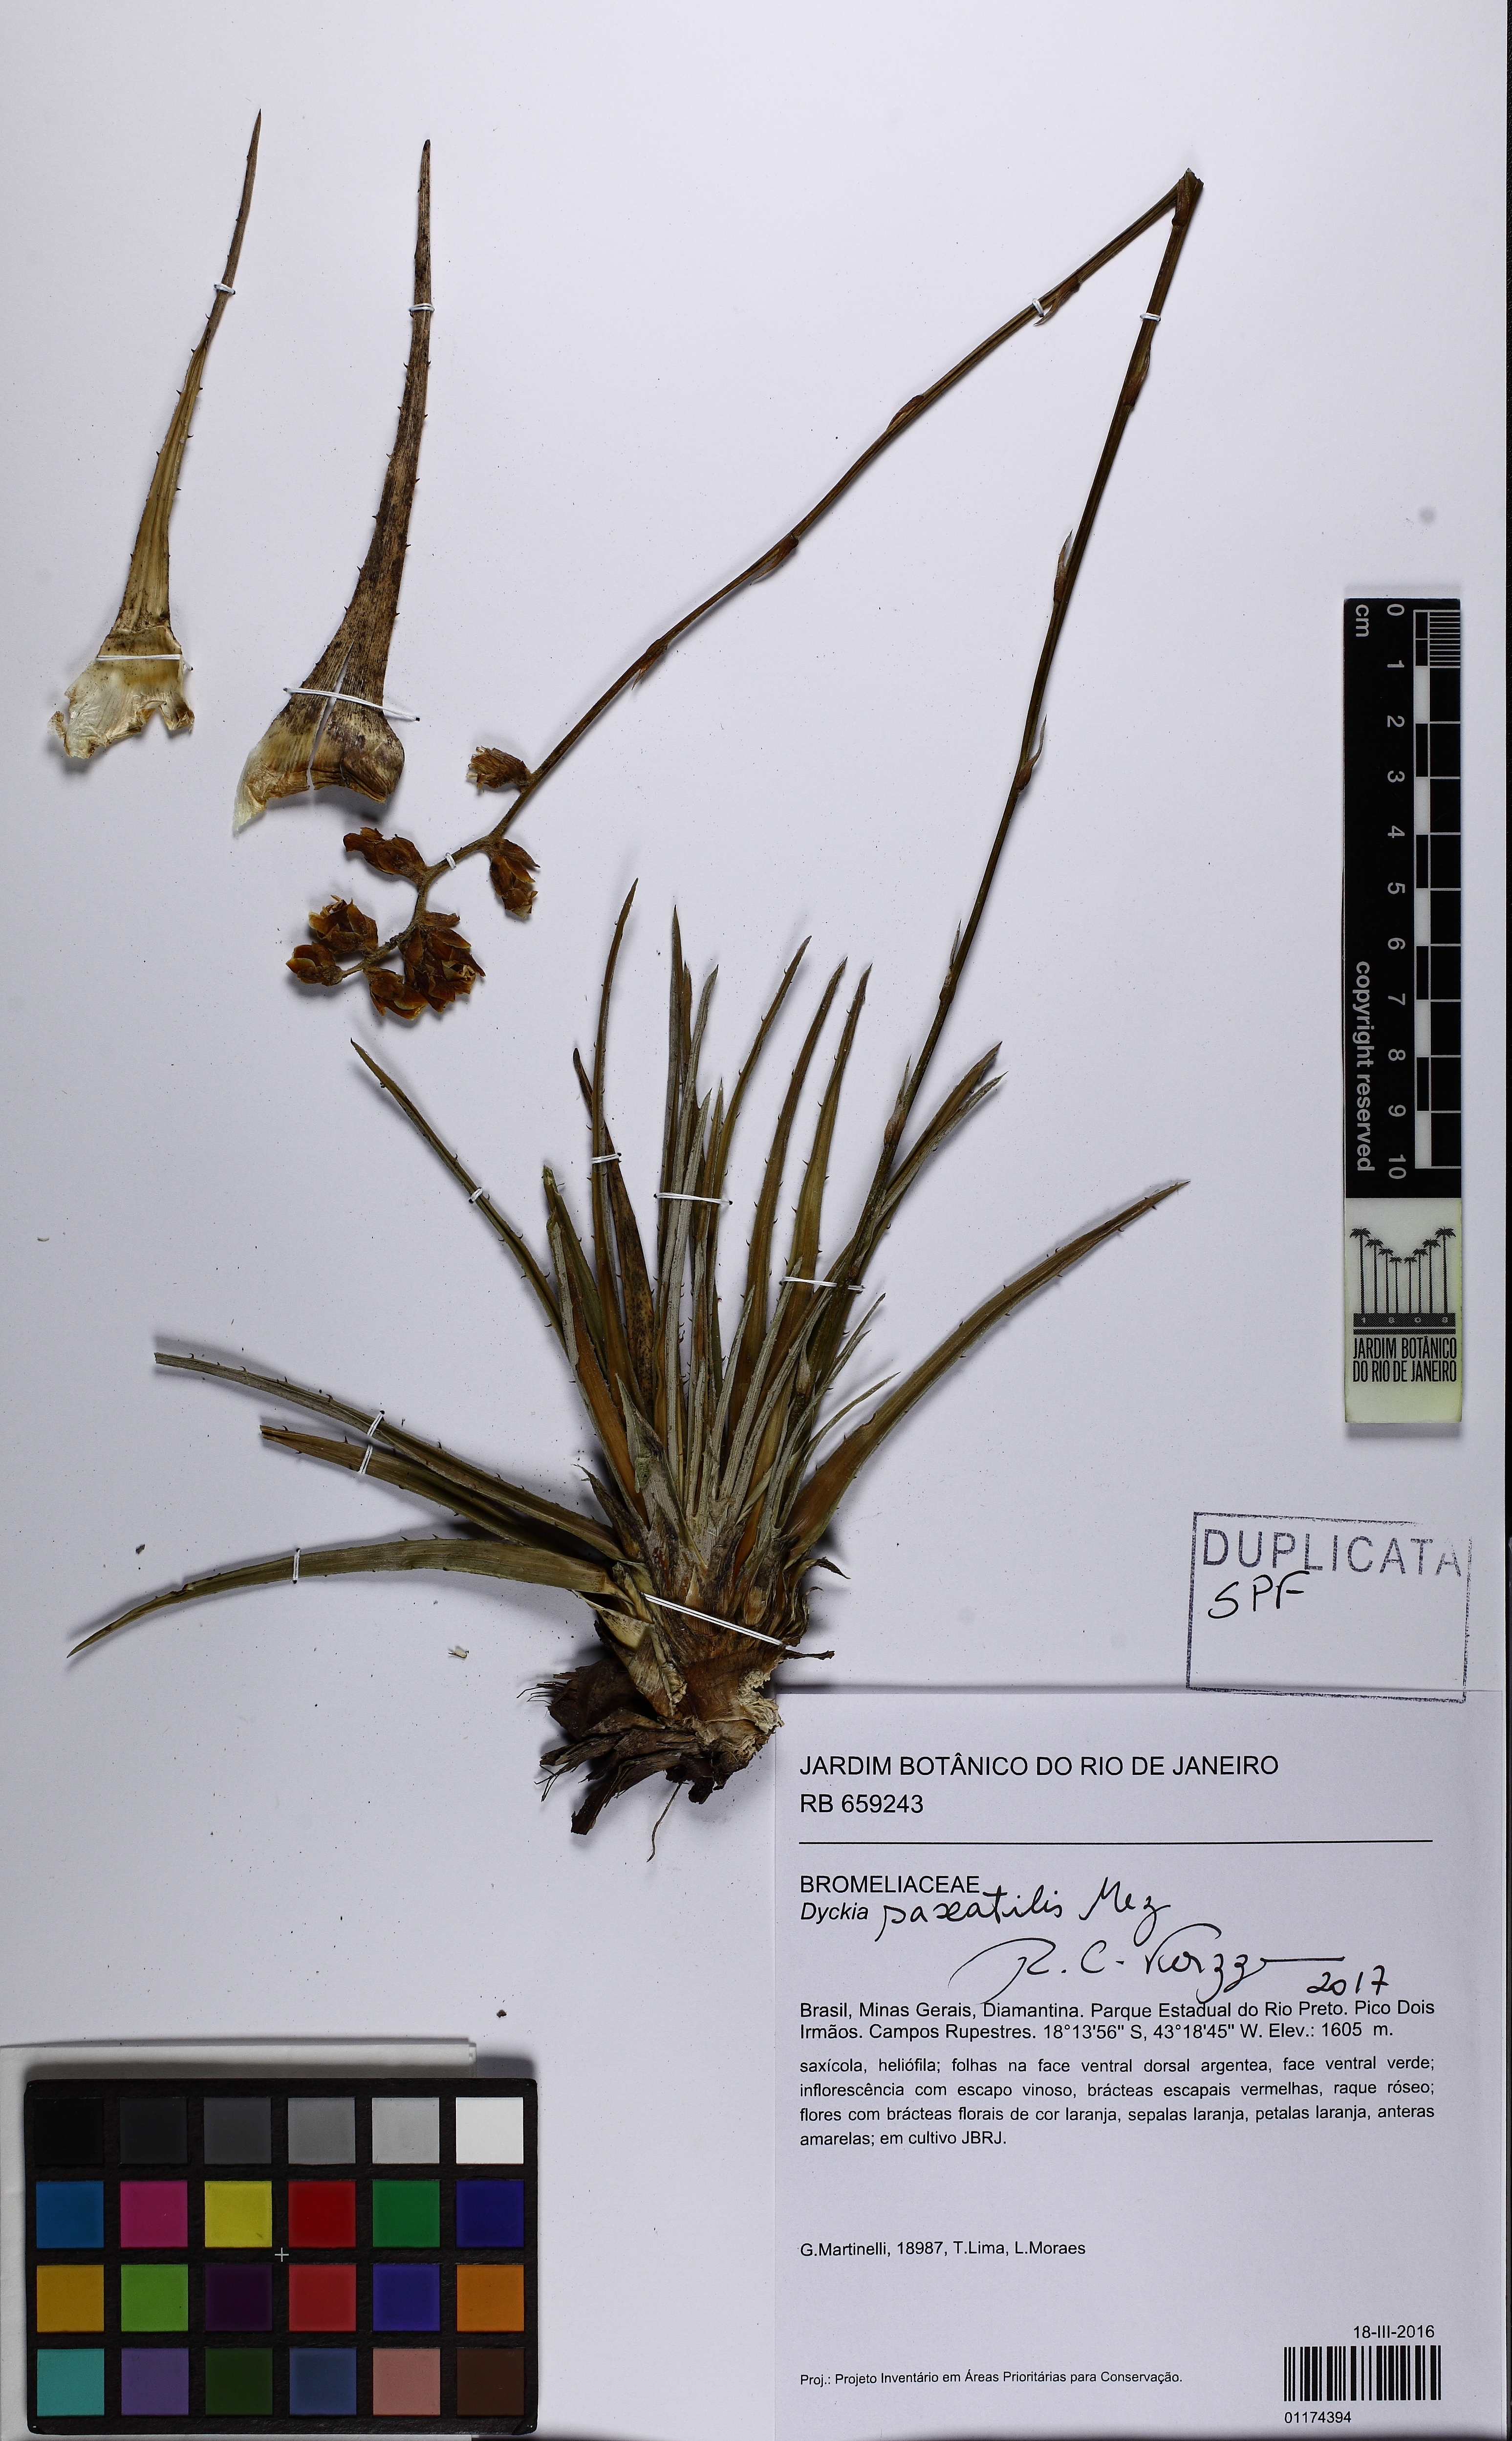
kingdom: Plantae
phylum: Tracheophyta
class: Liliopsida
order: Poales
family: Bromeliaceae
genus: Dyckia
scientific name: Dyckia saxatilis
